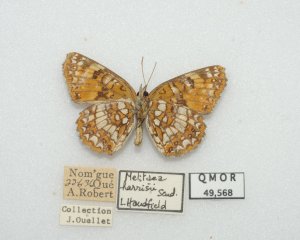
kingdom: Animalia
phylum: Arthropoda
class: Insecta
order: Lepidoptera
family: Nymphalidae
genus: Chlosyne
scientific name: Chlosyne harrisii
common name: Harris's Checkerspot
